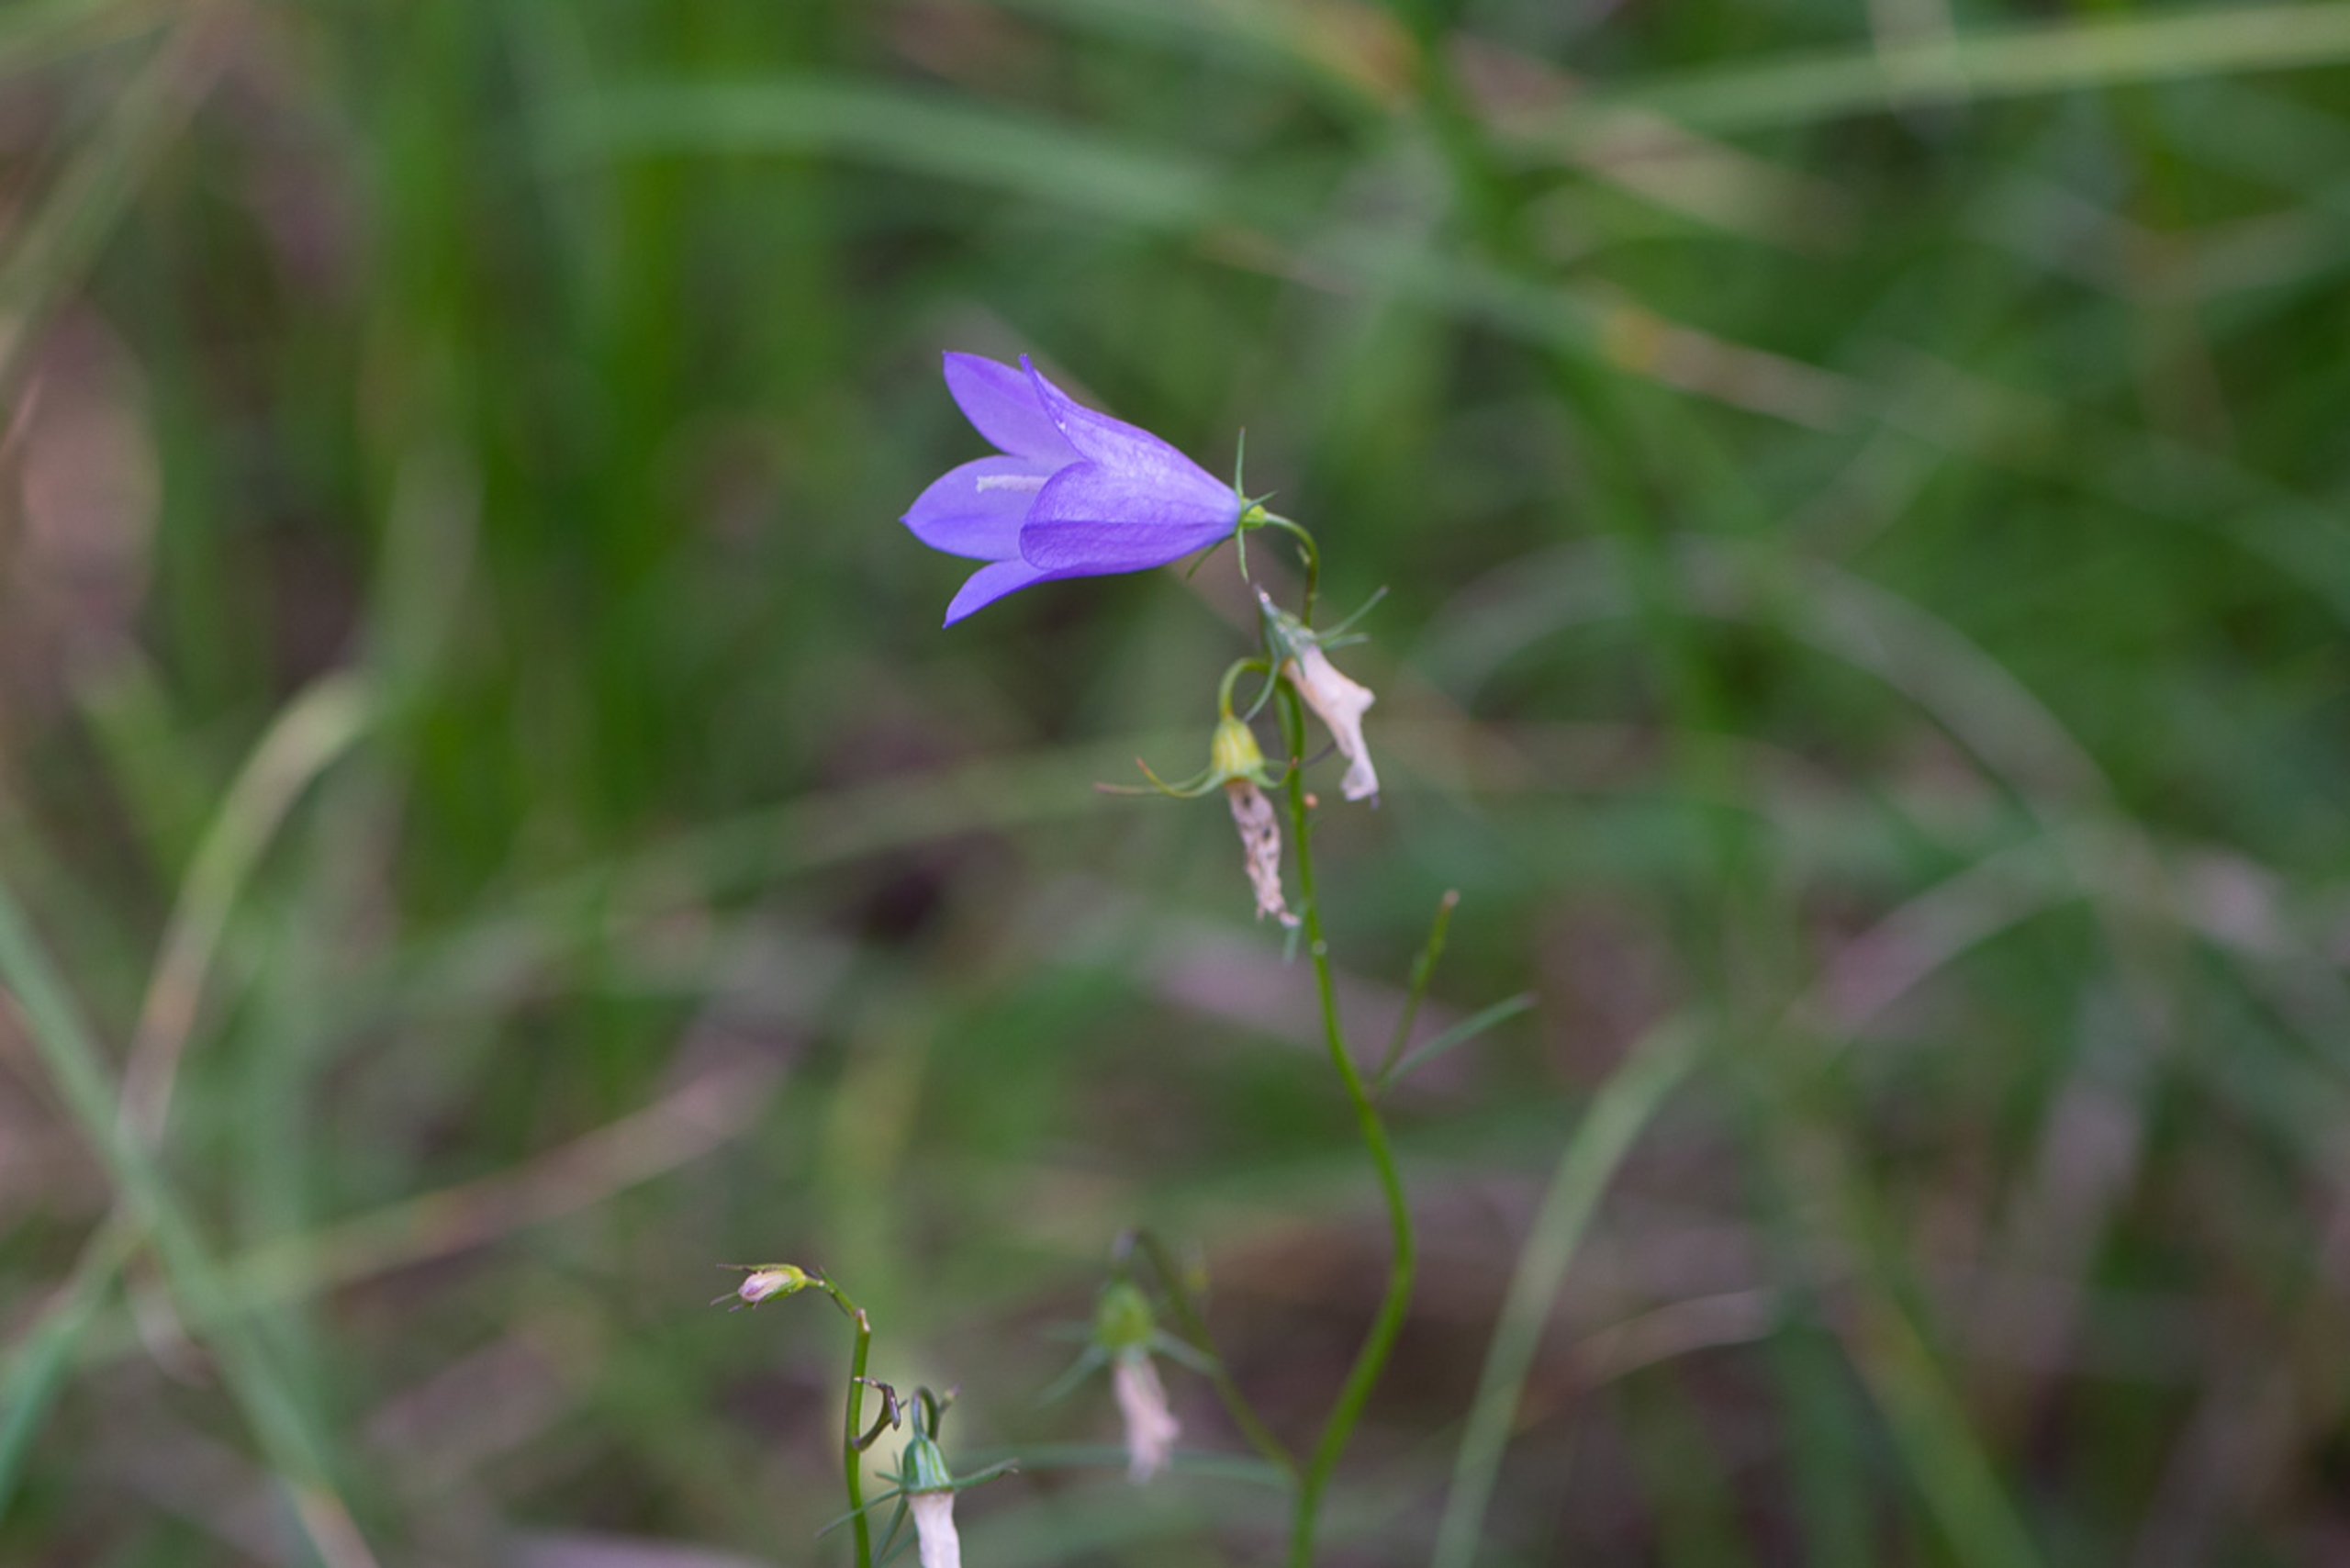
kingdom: Plantae
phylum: Tracheophyta
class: Magnoliopsida
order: Asterales
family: Campanulaceae
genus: Campanula
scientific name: Campanula rotundifolia
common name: Liden klokke
